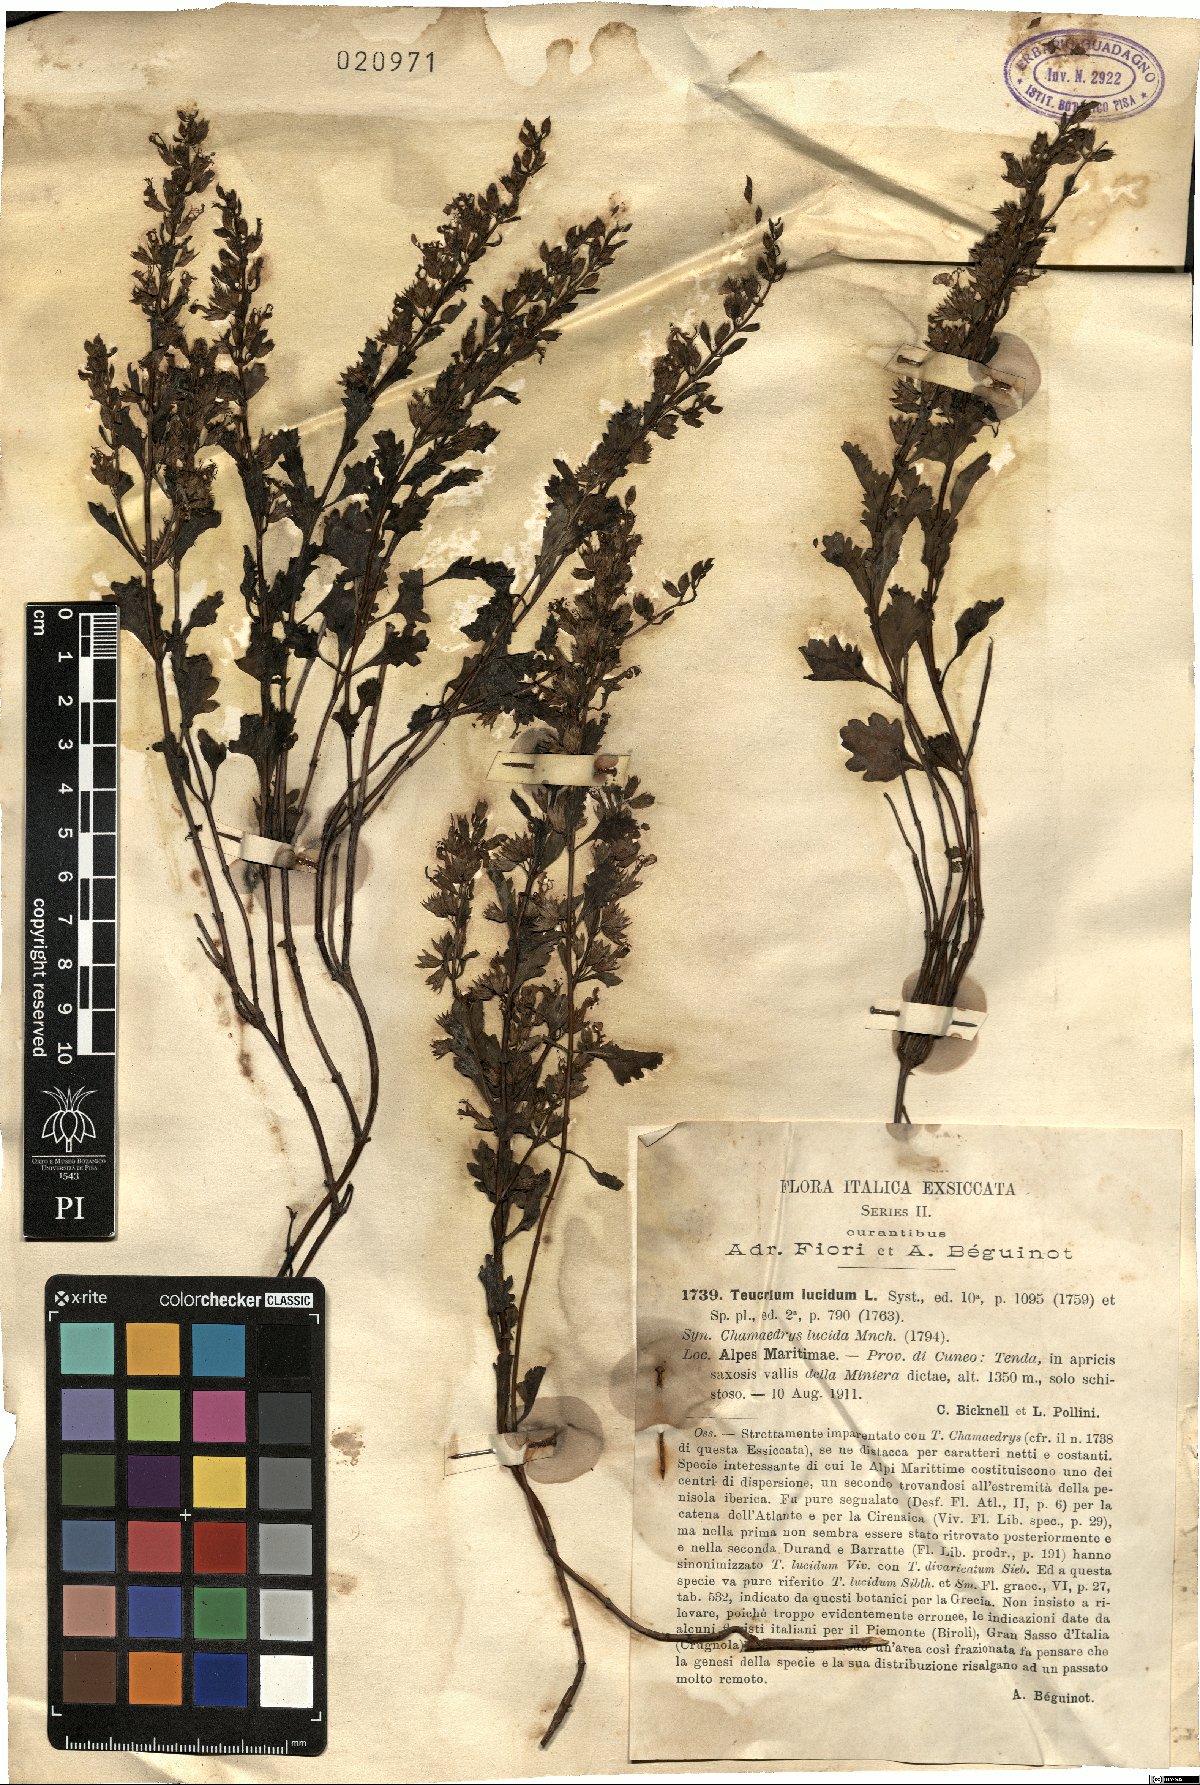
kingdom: Plantae
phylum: Tracheophyta
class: Magnoliopsida
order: Lamiales
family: Lamiaceae
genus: Teucrium
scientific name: Teucrium lucidum
